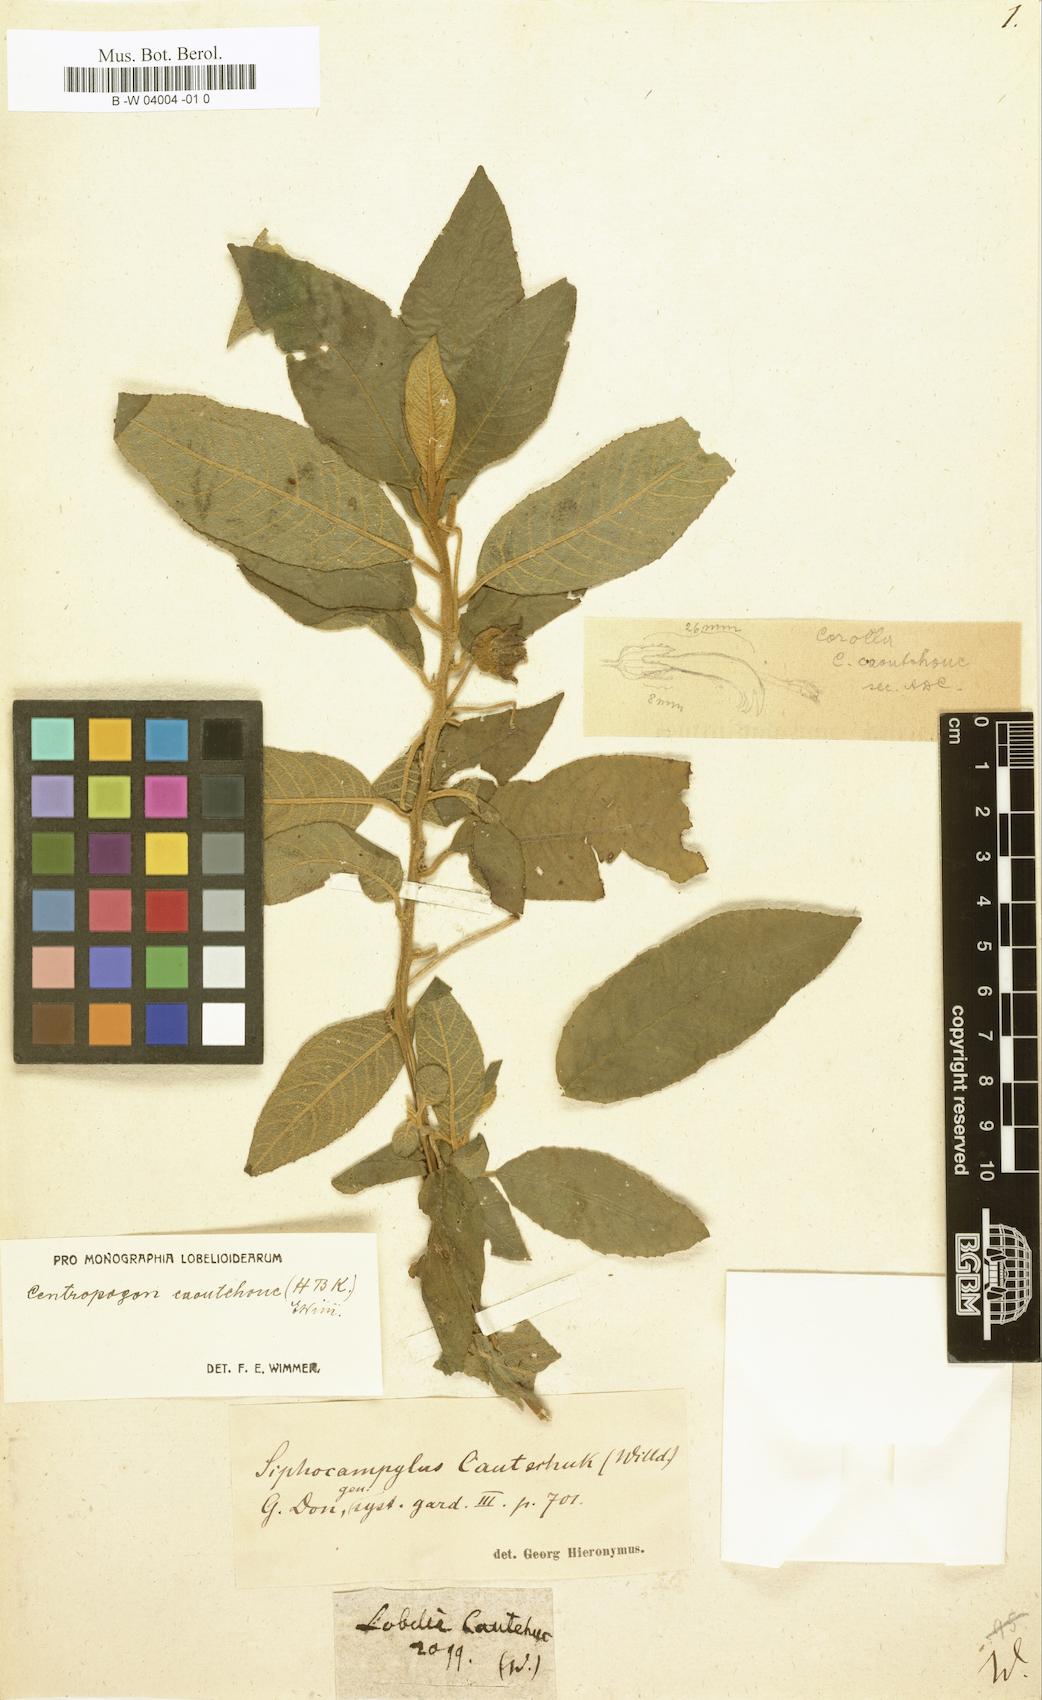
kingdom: Plantae
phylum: Tracheophyta
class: Magnoliopsida
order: Asterales
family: Campanulaceae
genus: Centropogon
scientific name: Centropogon caoutchouc
